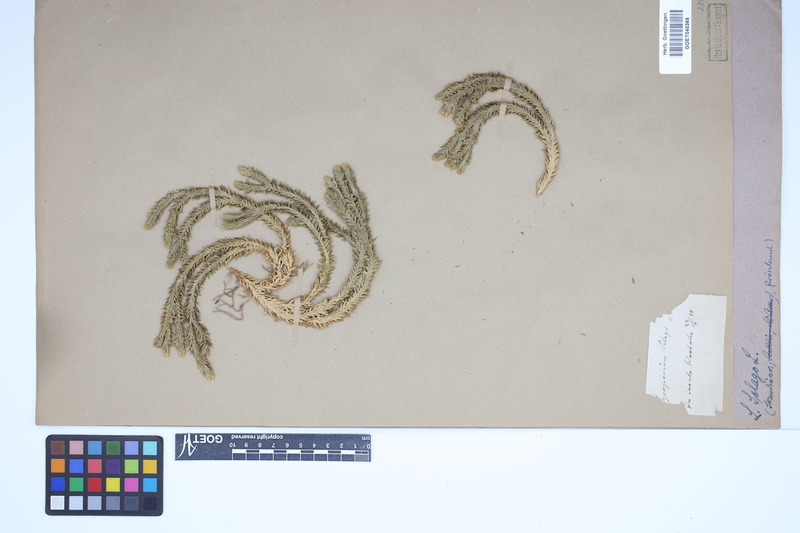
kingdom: Plantae
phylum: Tracheophyta
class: Lycopodiopsida
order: Lycopodiales
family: Lycopodiaceae
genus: Huperzia
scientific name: Huperzia selago
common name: Northern firmoss
